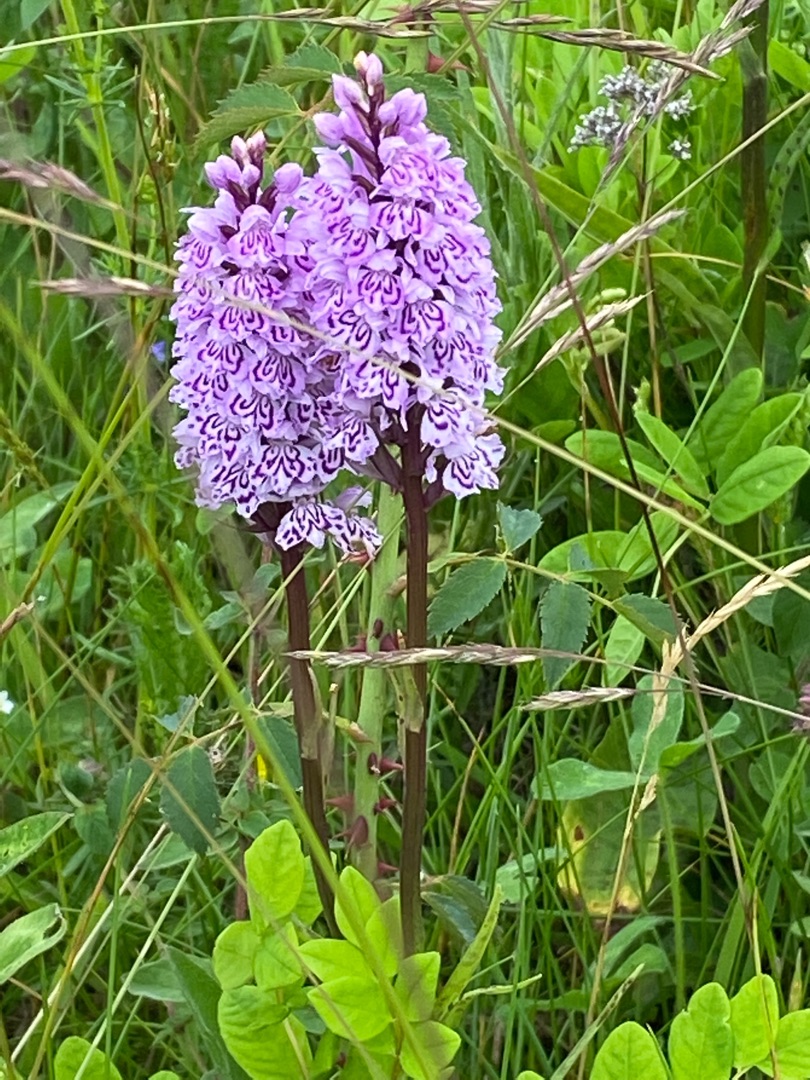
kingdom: Plantae
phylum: Tracheophyta
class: Liliopsida
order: Asparagales
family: Orchidaceae
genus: Dactylorhiza
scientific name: Dactylorhiza maculata
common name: Skov-gøgeurt
